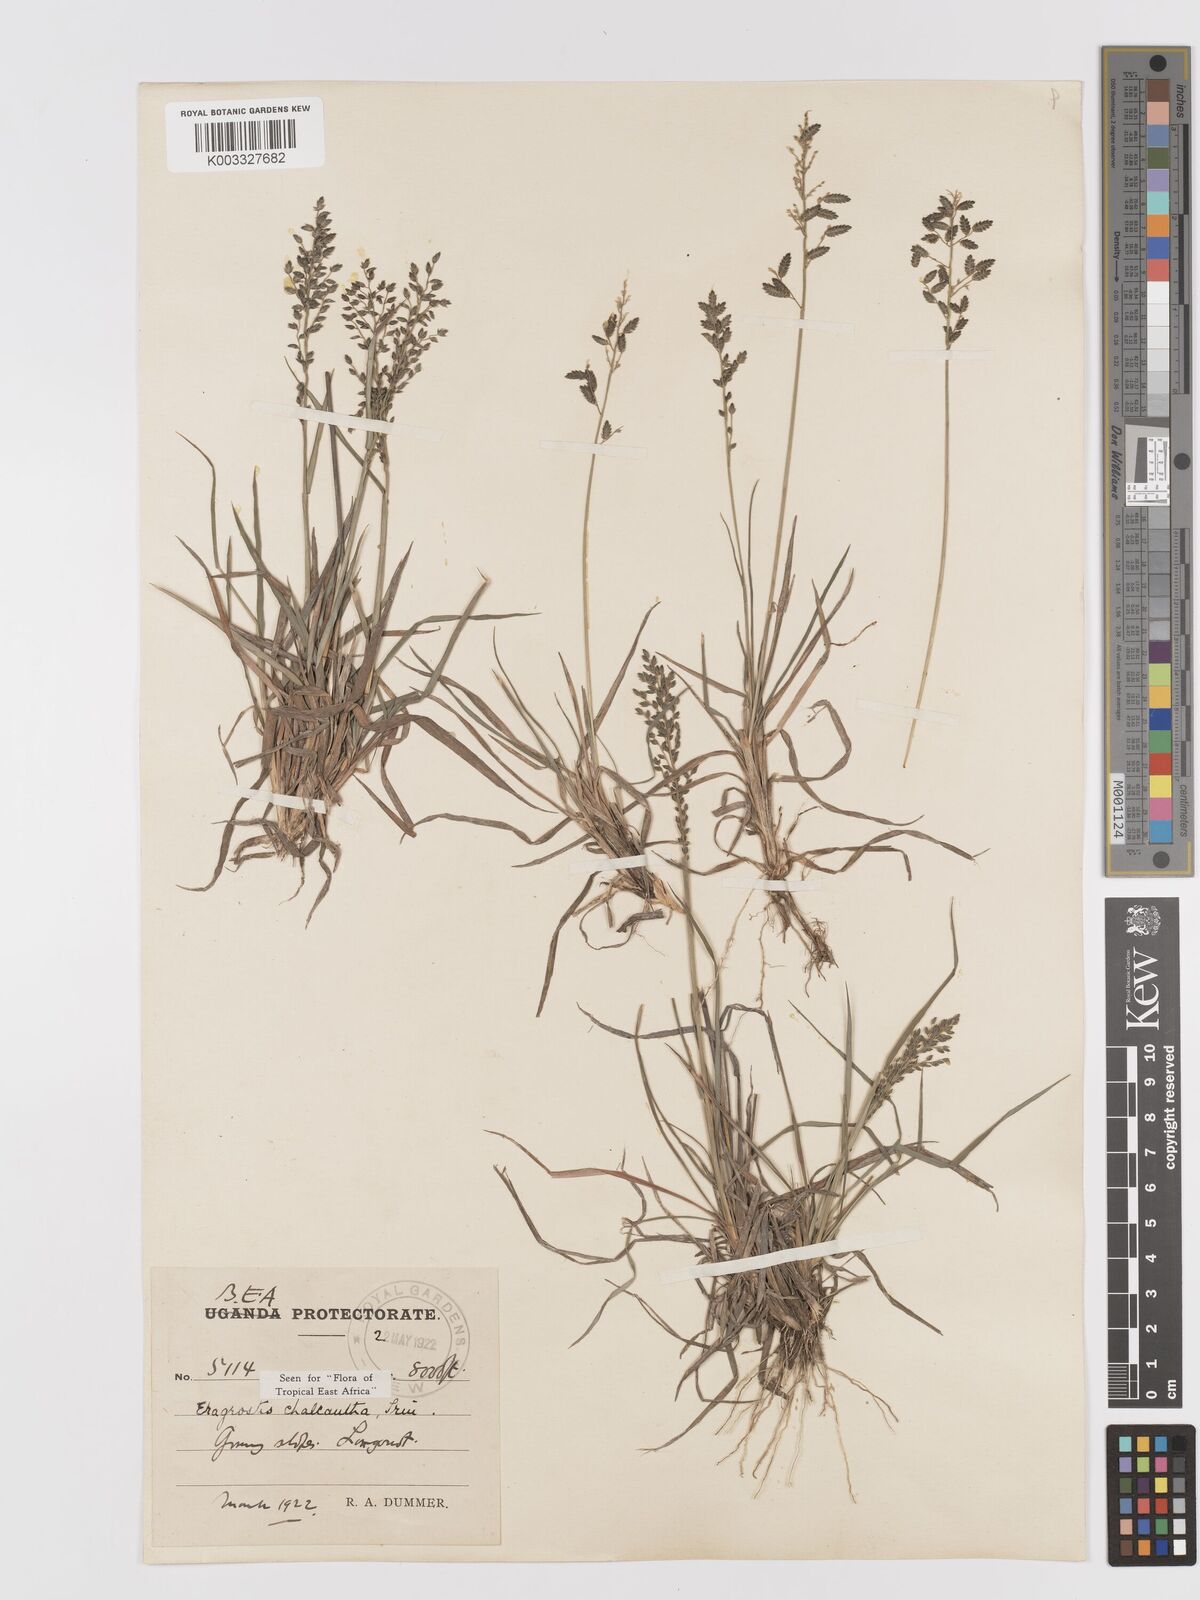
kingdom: Plantae
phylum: Tracheophyta
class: Liliopsida
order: Poales
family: Poaceae
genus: Eragrostis
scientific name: Eragrostis racemosa
